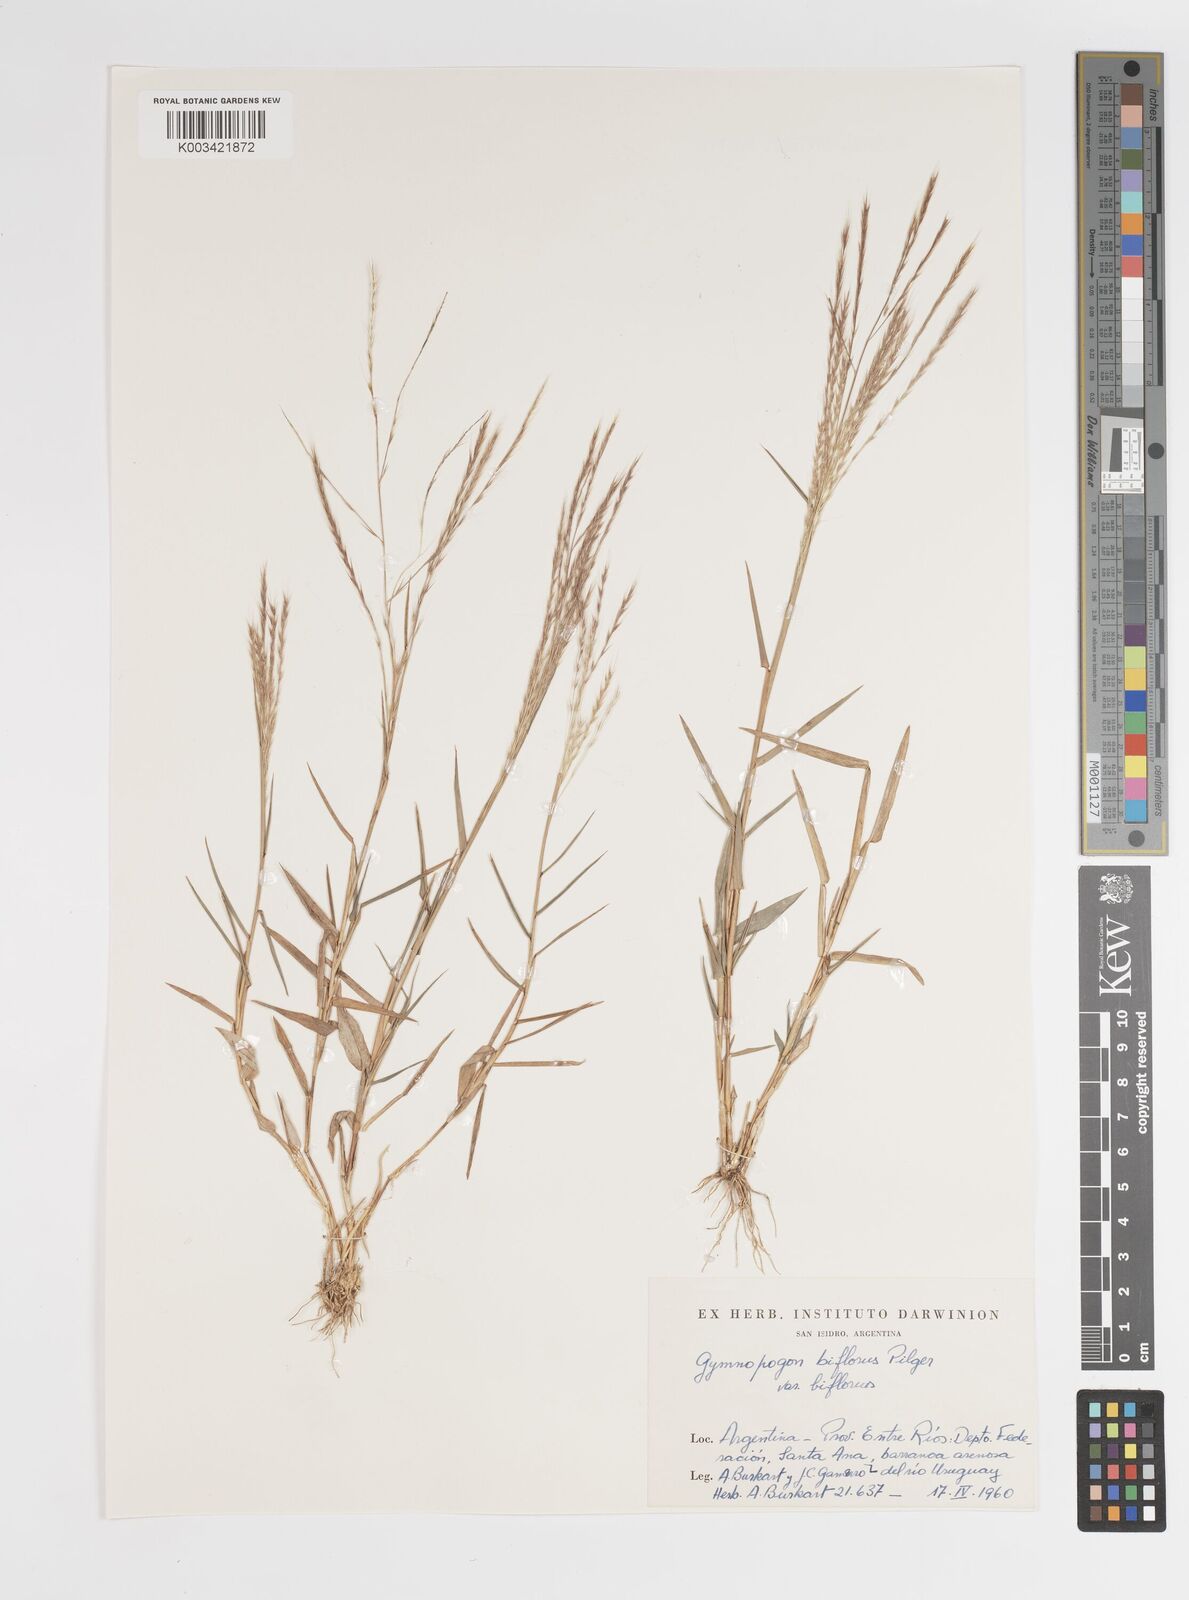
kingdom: Plantae
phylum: Tracheophyta
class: Liliopsida
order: Poales
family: Poaceae
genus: Gymnopogon
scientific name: Gymnopogon spicatus
